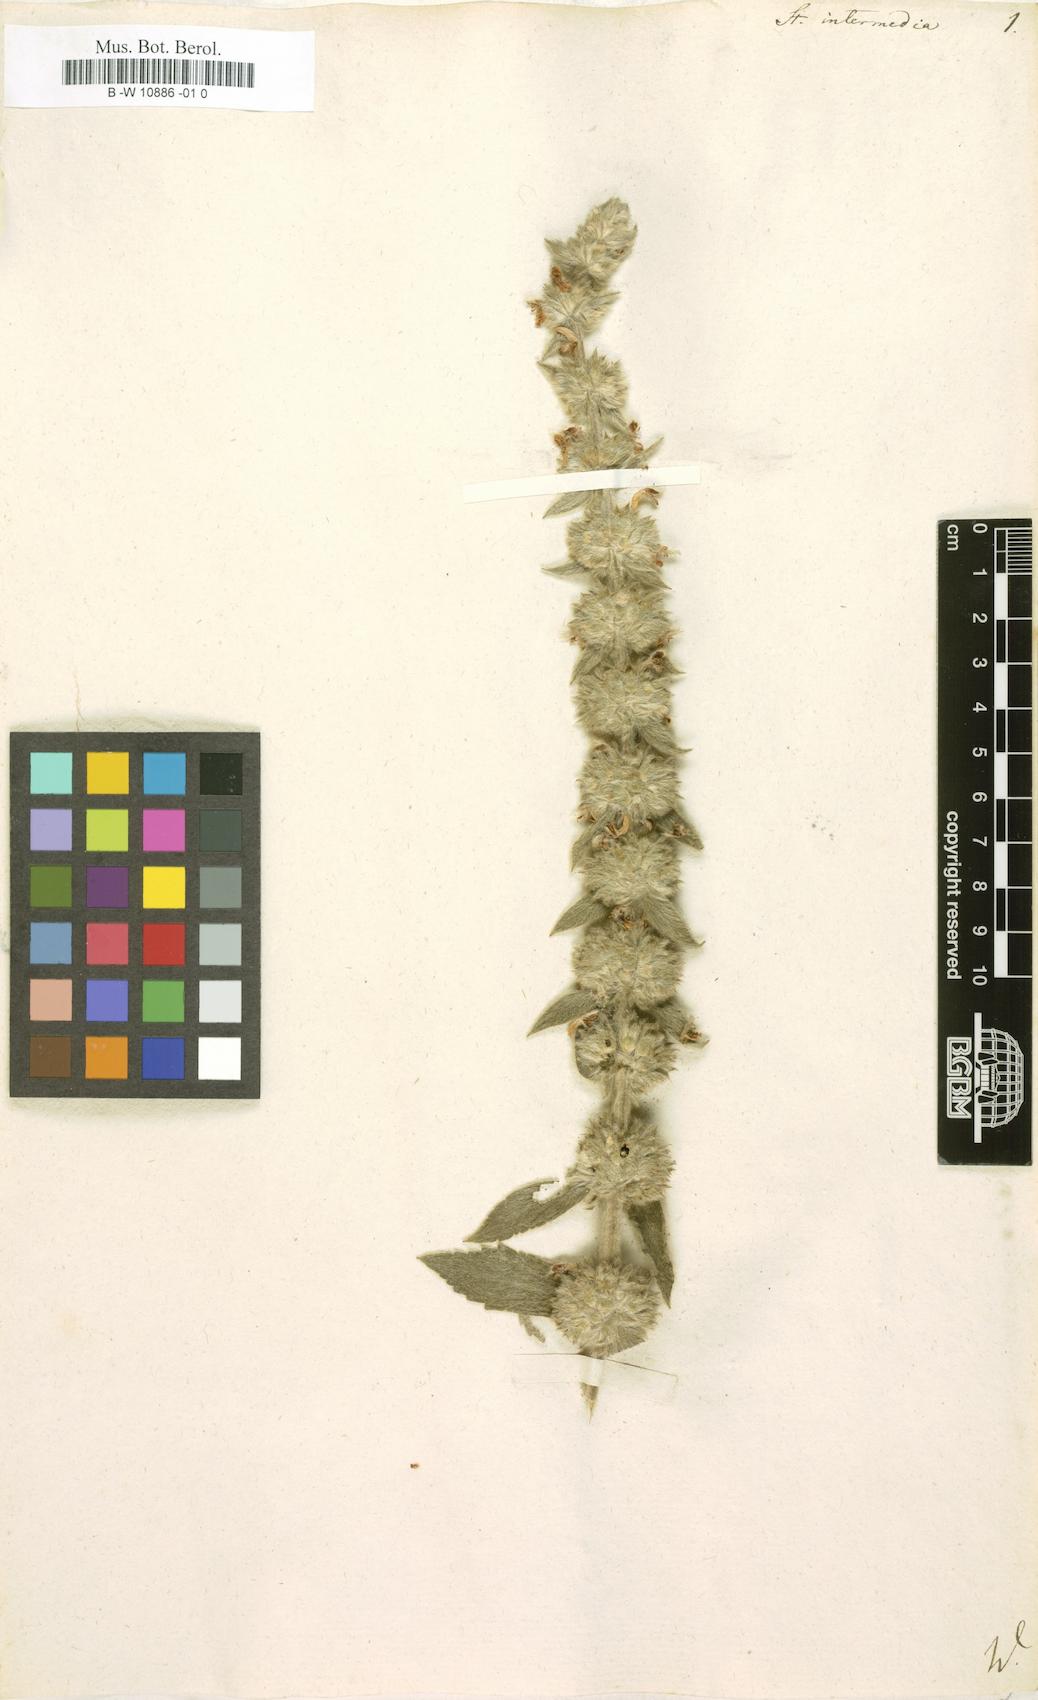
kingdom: Plantae
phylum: Tracheophyta
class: Magnoliopsida
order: Lamiales
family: Lamiaceae
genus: Stachys
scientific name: Stachys intermedia
